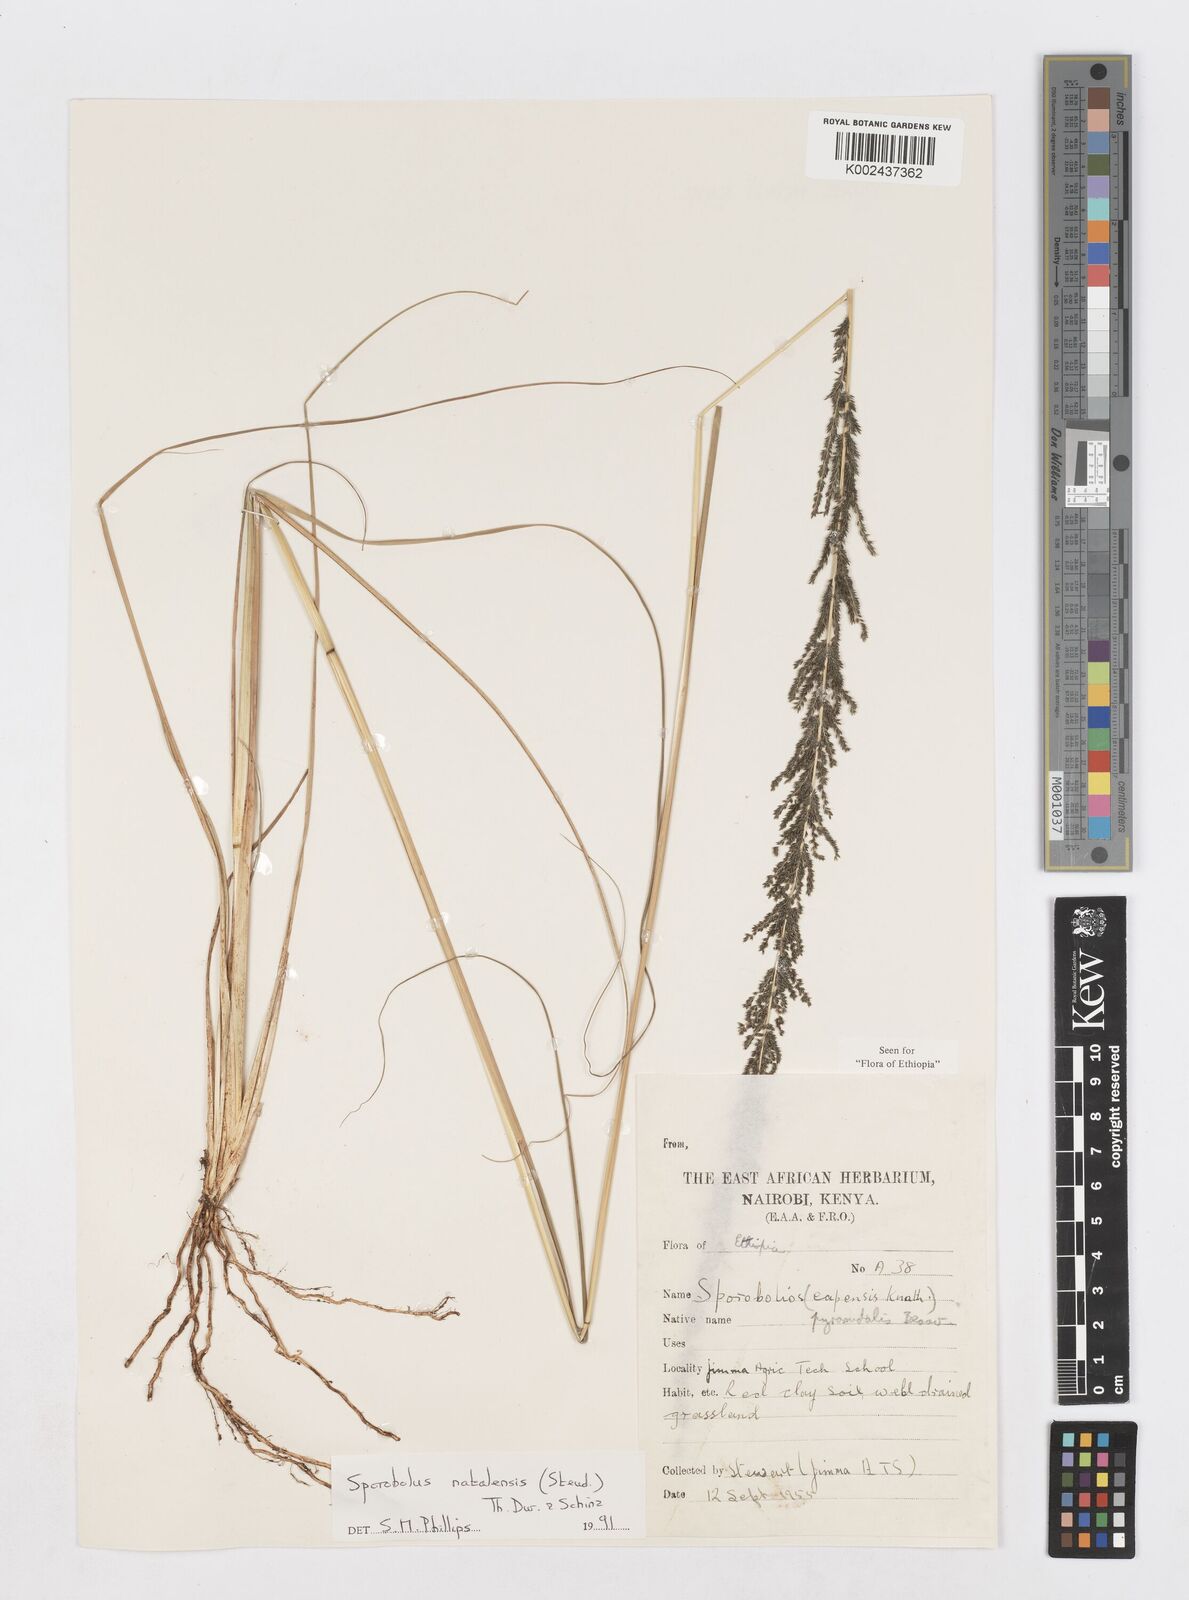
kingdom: Plantae
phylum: Tracheophyta
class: Liliopsida
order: Poales
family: Poaceae
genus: Sporobolus
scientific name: Sporobolus natalensis
